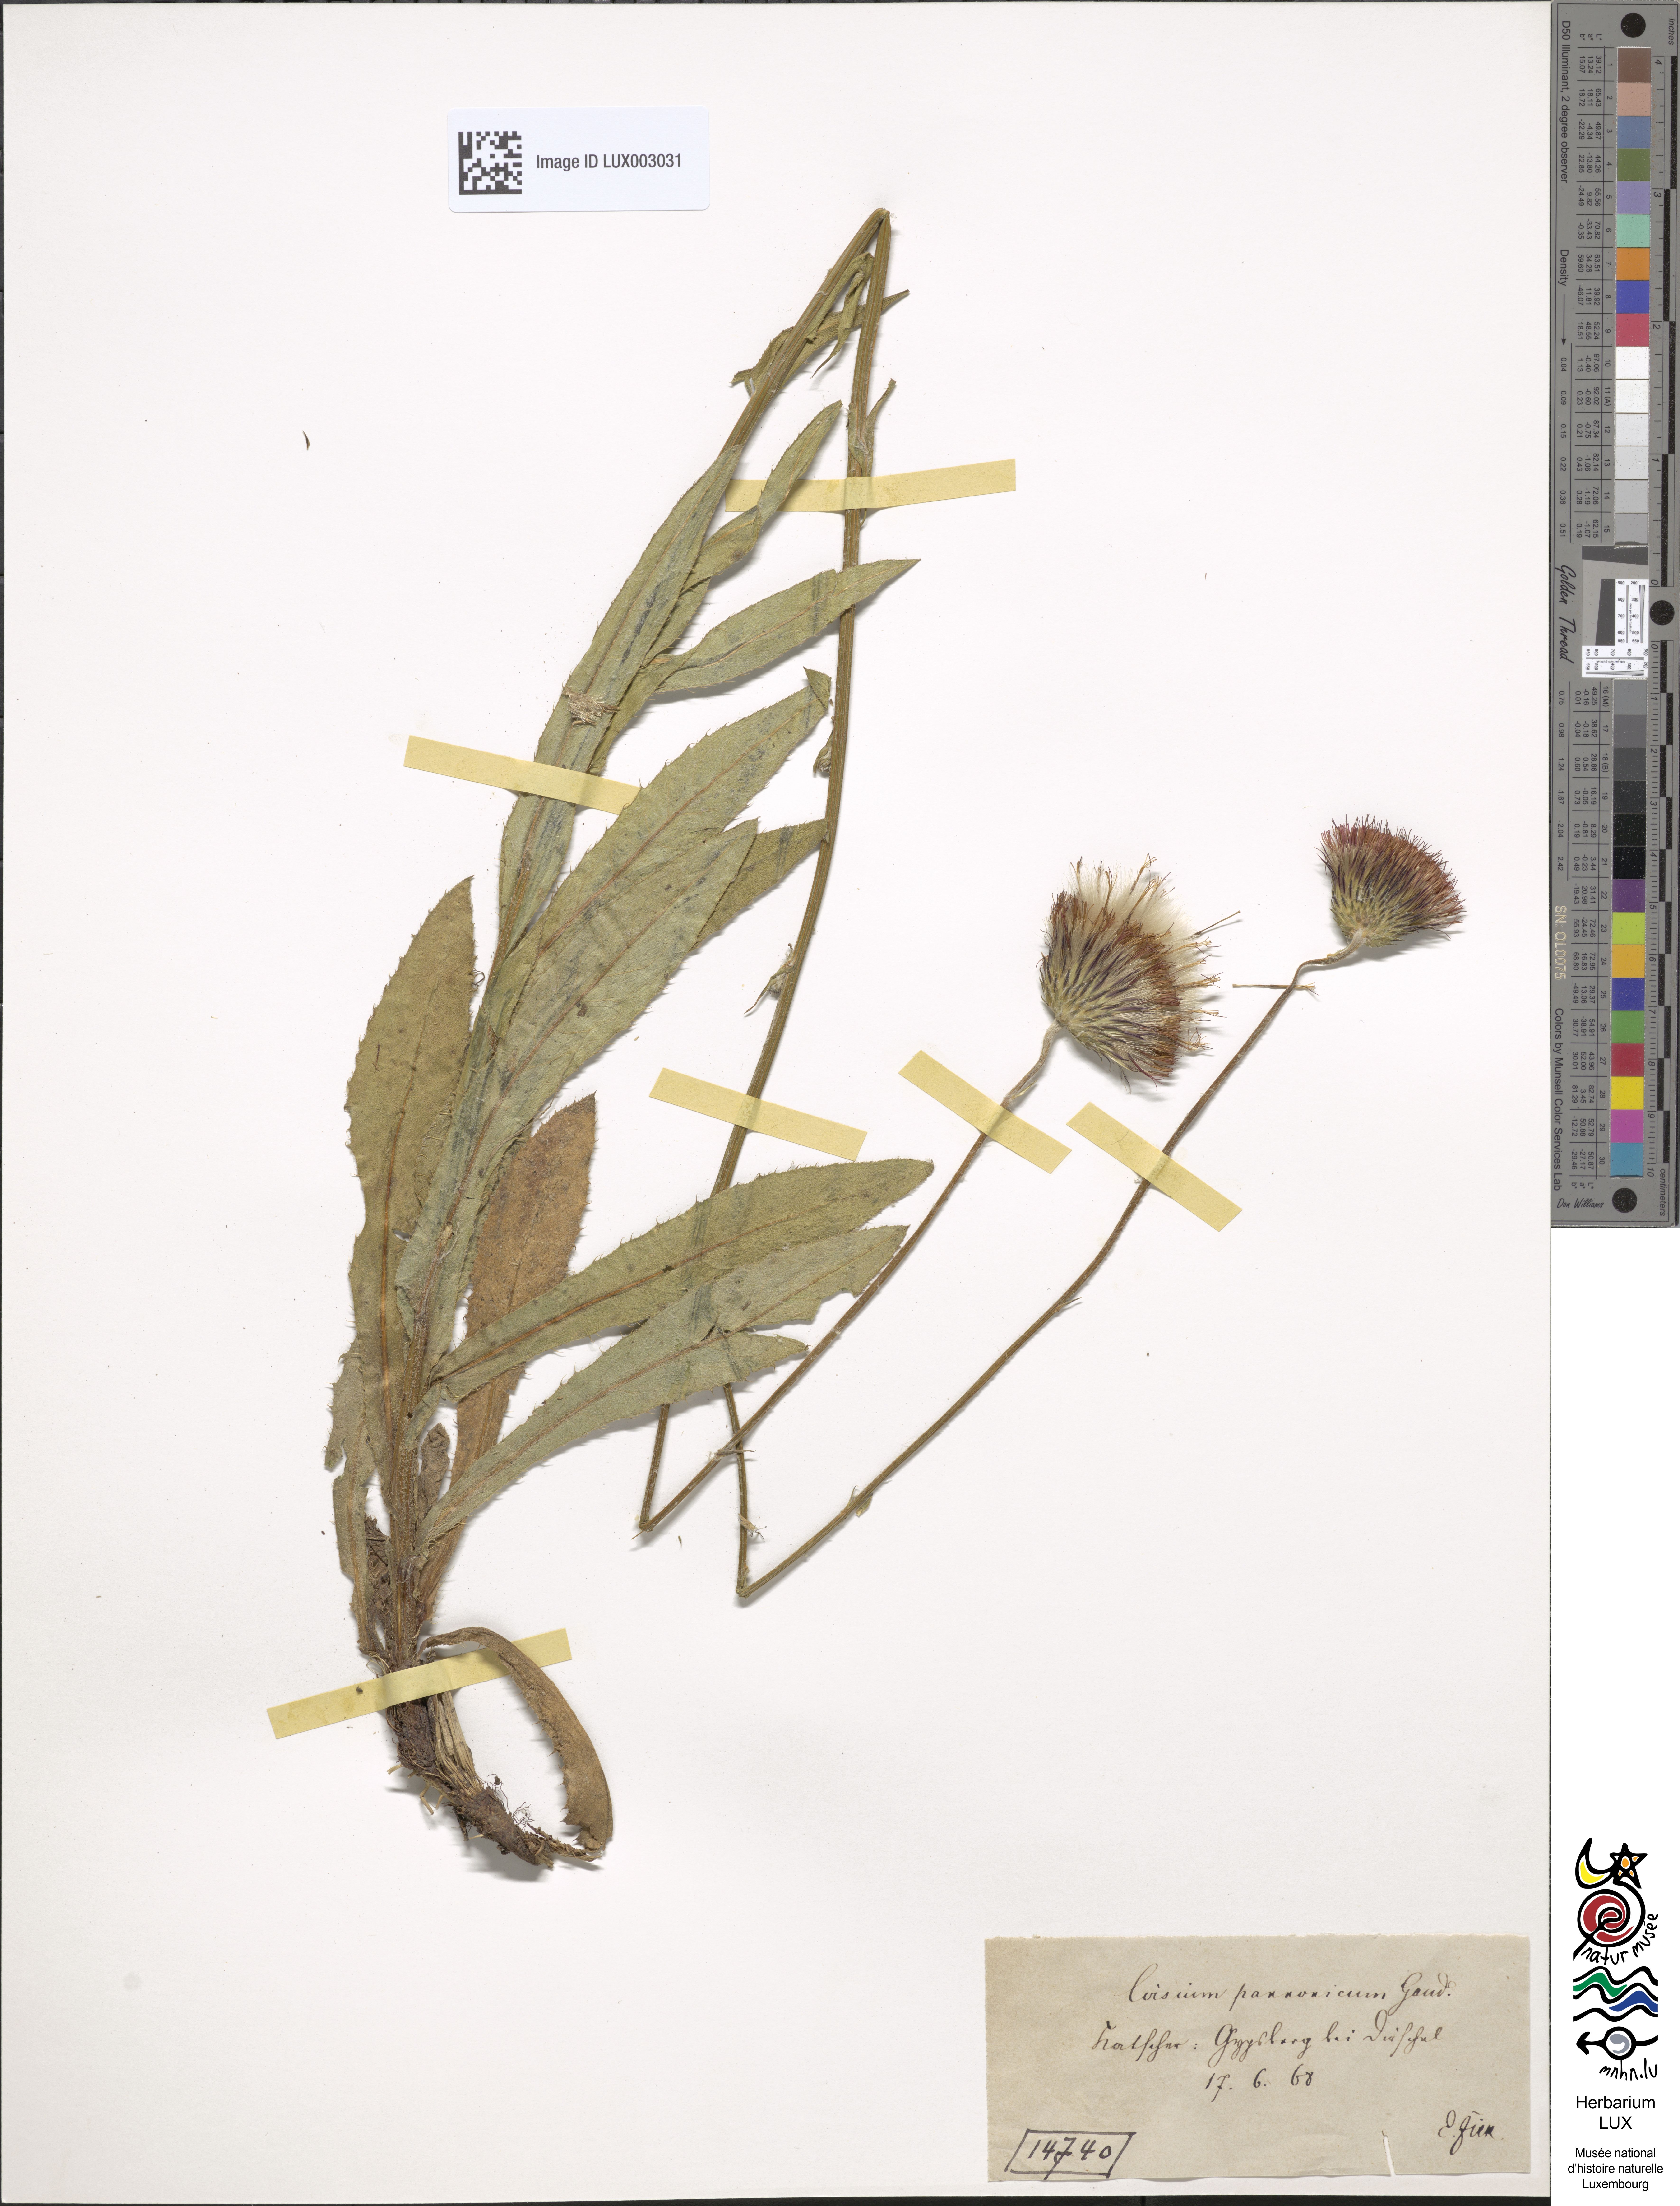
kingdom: Plantae
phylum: Tracheophyta
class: Magnoliopsida
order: Asterales
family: Asteraceae
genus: Cirsium
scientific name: Cirsium pannonicum
